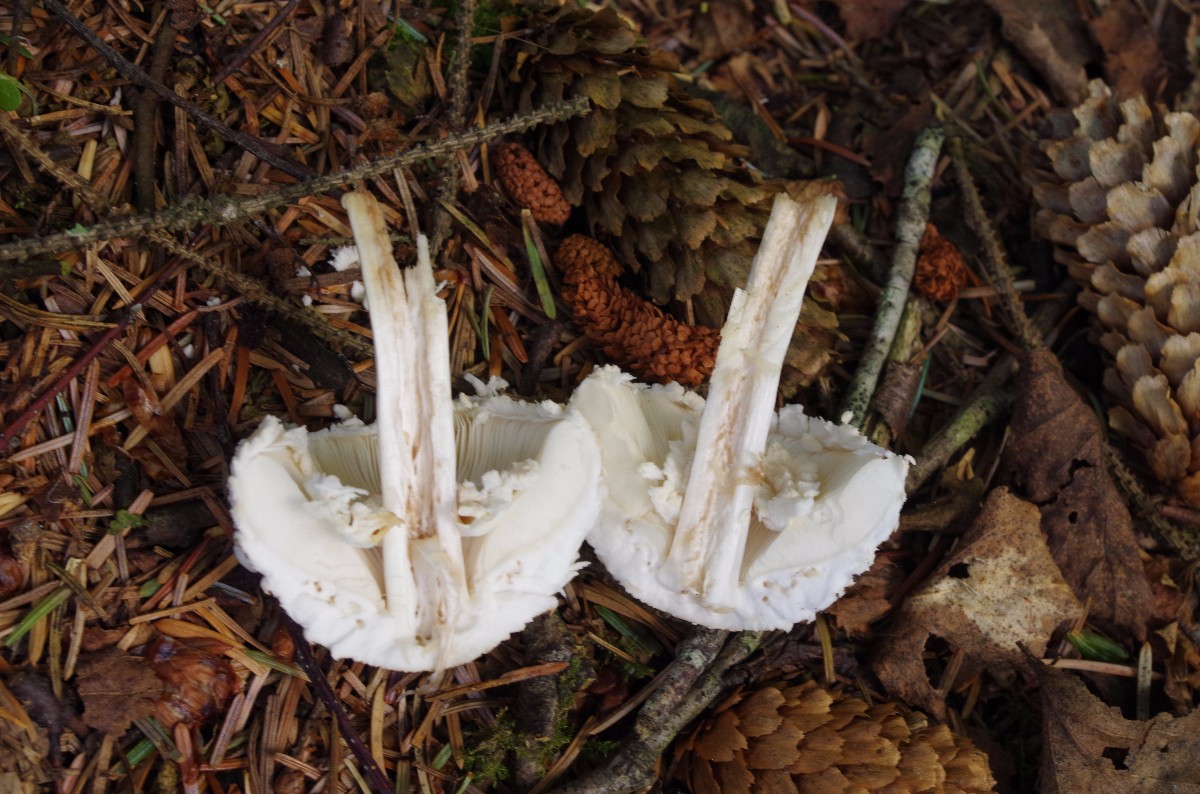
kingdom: Fungi
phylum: Basidiomycota
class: Agaricomycetes
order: Agaricales
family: Agaricaceae
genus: Leucoagaricus
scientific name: Leucoagaricus nympharum
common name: gran-silkehat
